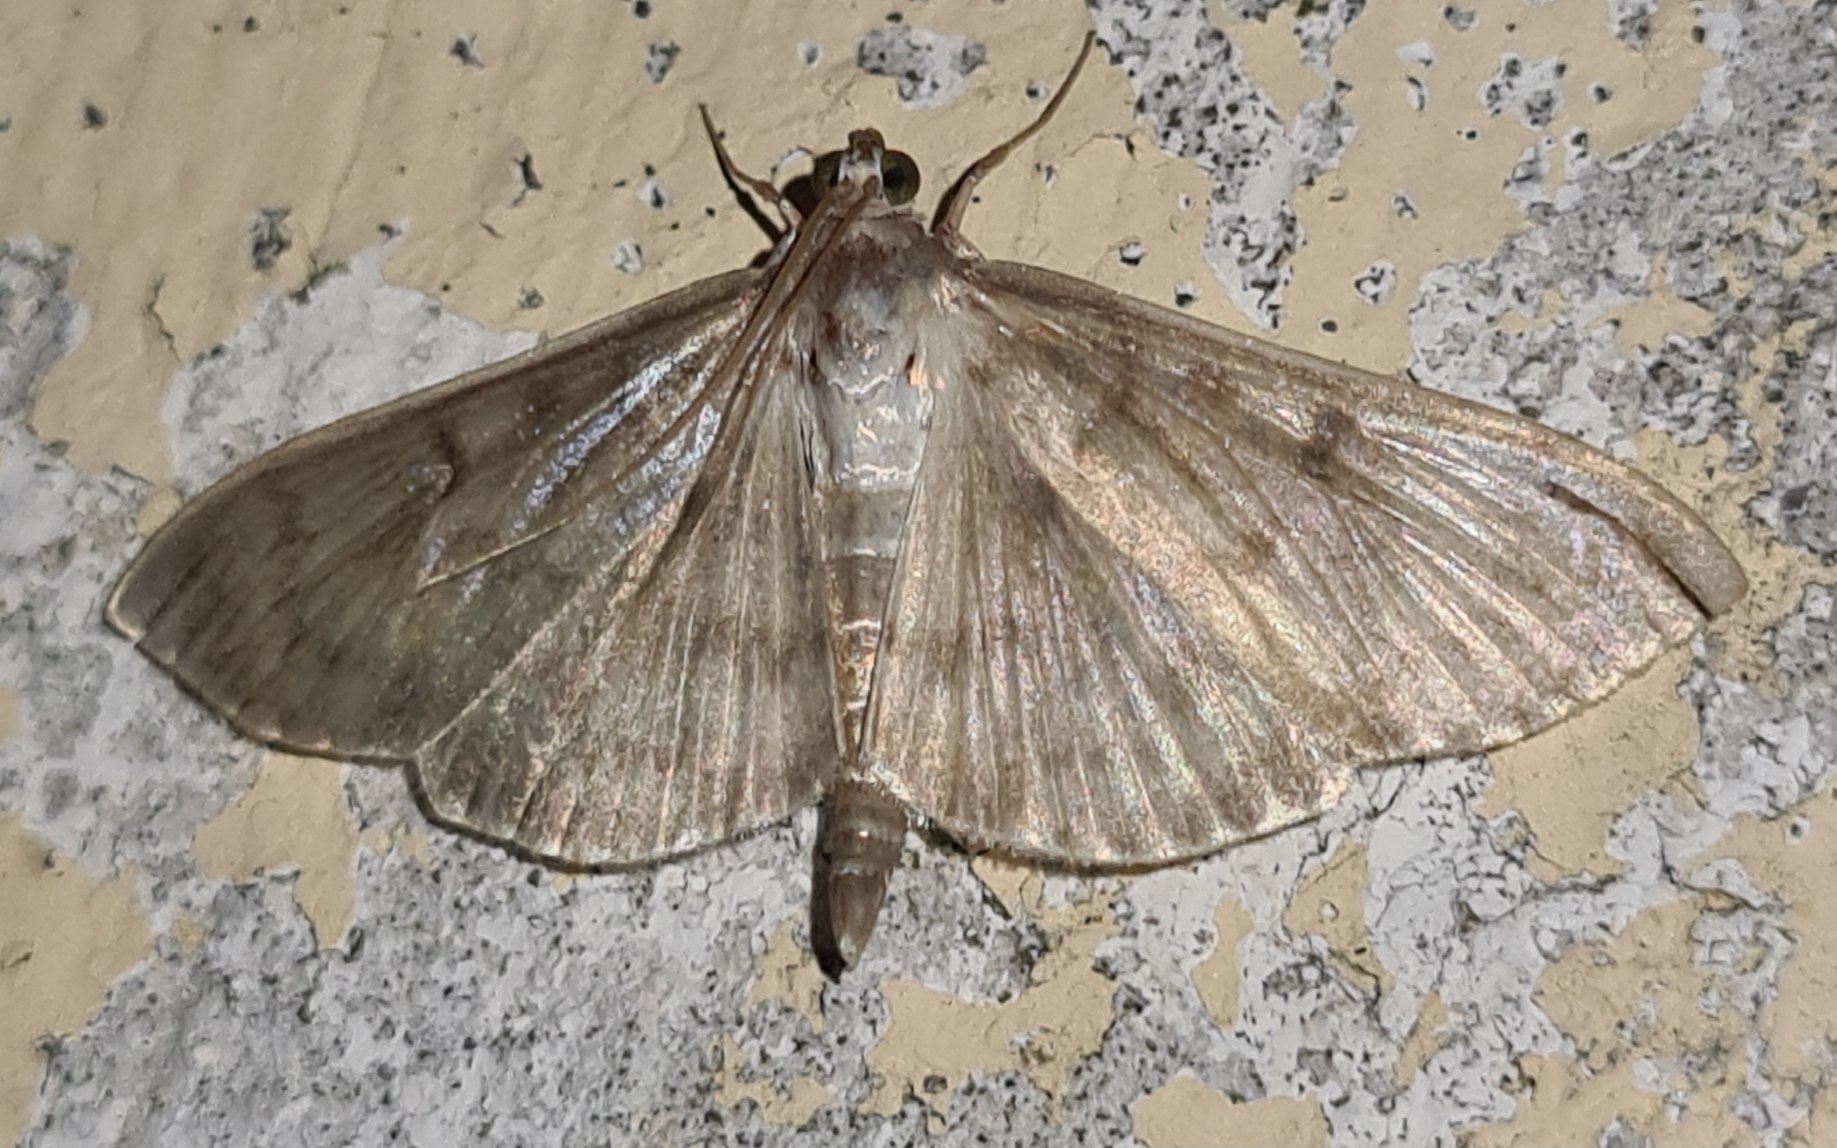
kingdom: Animalia
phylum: Arthropoda
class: Insecta
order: Lepidoptera
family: Crambidae
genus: Patania
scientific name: Patania ruralis
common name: Perlemorshalvmøl
